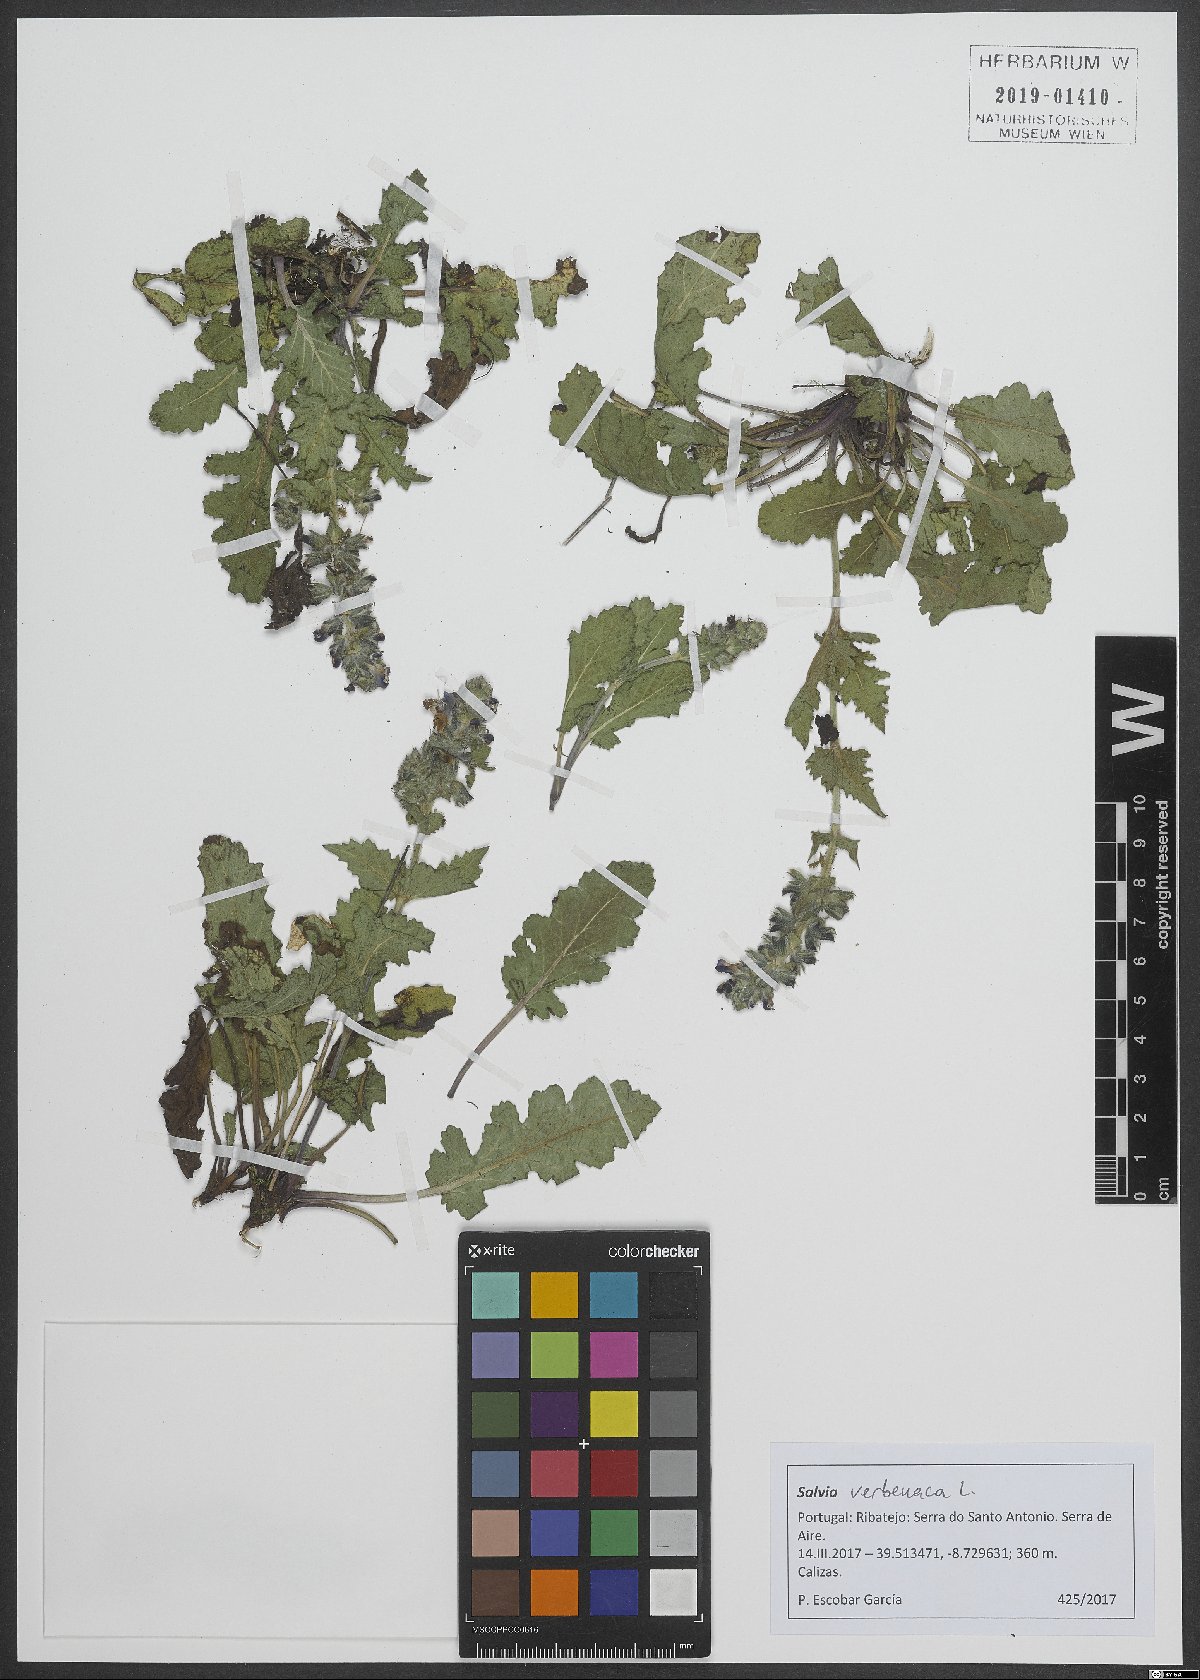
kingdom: Plantae
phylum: Tracheophyta
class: Magnoliopsida
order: Lamiales
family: Lamiaceae
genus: Salvia
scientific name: Salvia verbenaca
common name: Wild clary
